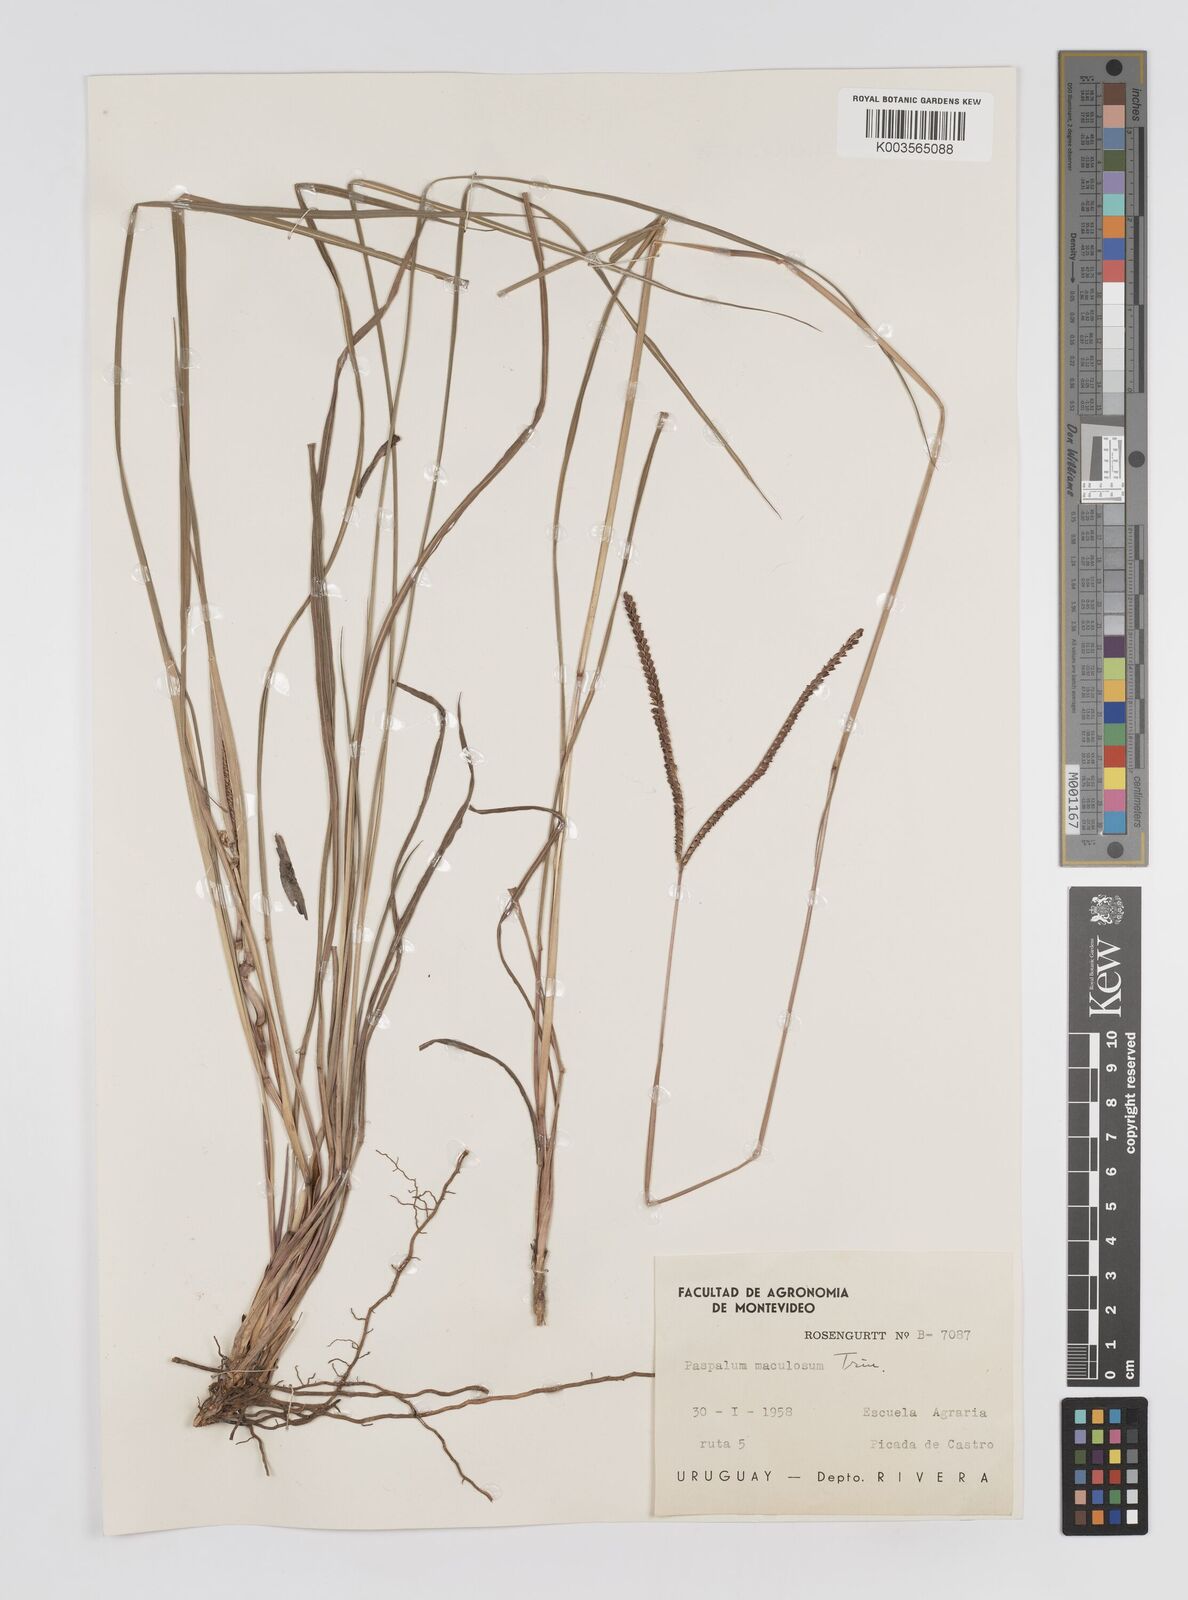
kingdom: Plantae
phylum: Tracheophyta
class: Liliopsida
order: Poales
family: Poaceae
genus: Paspalum
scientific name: Paspalum maculosum
